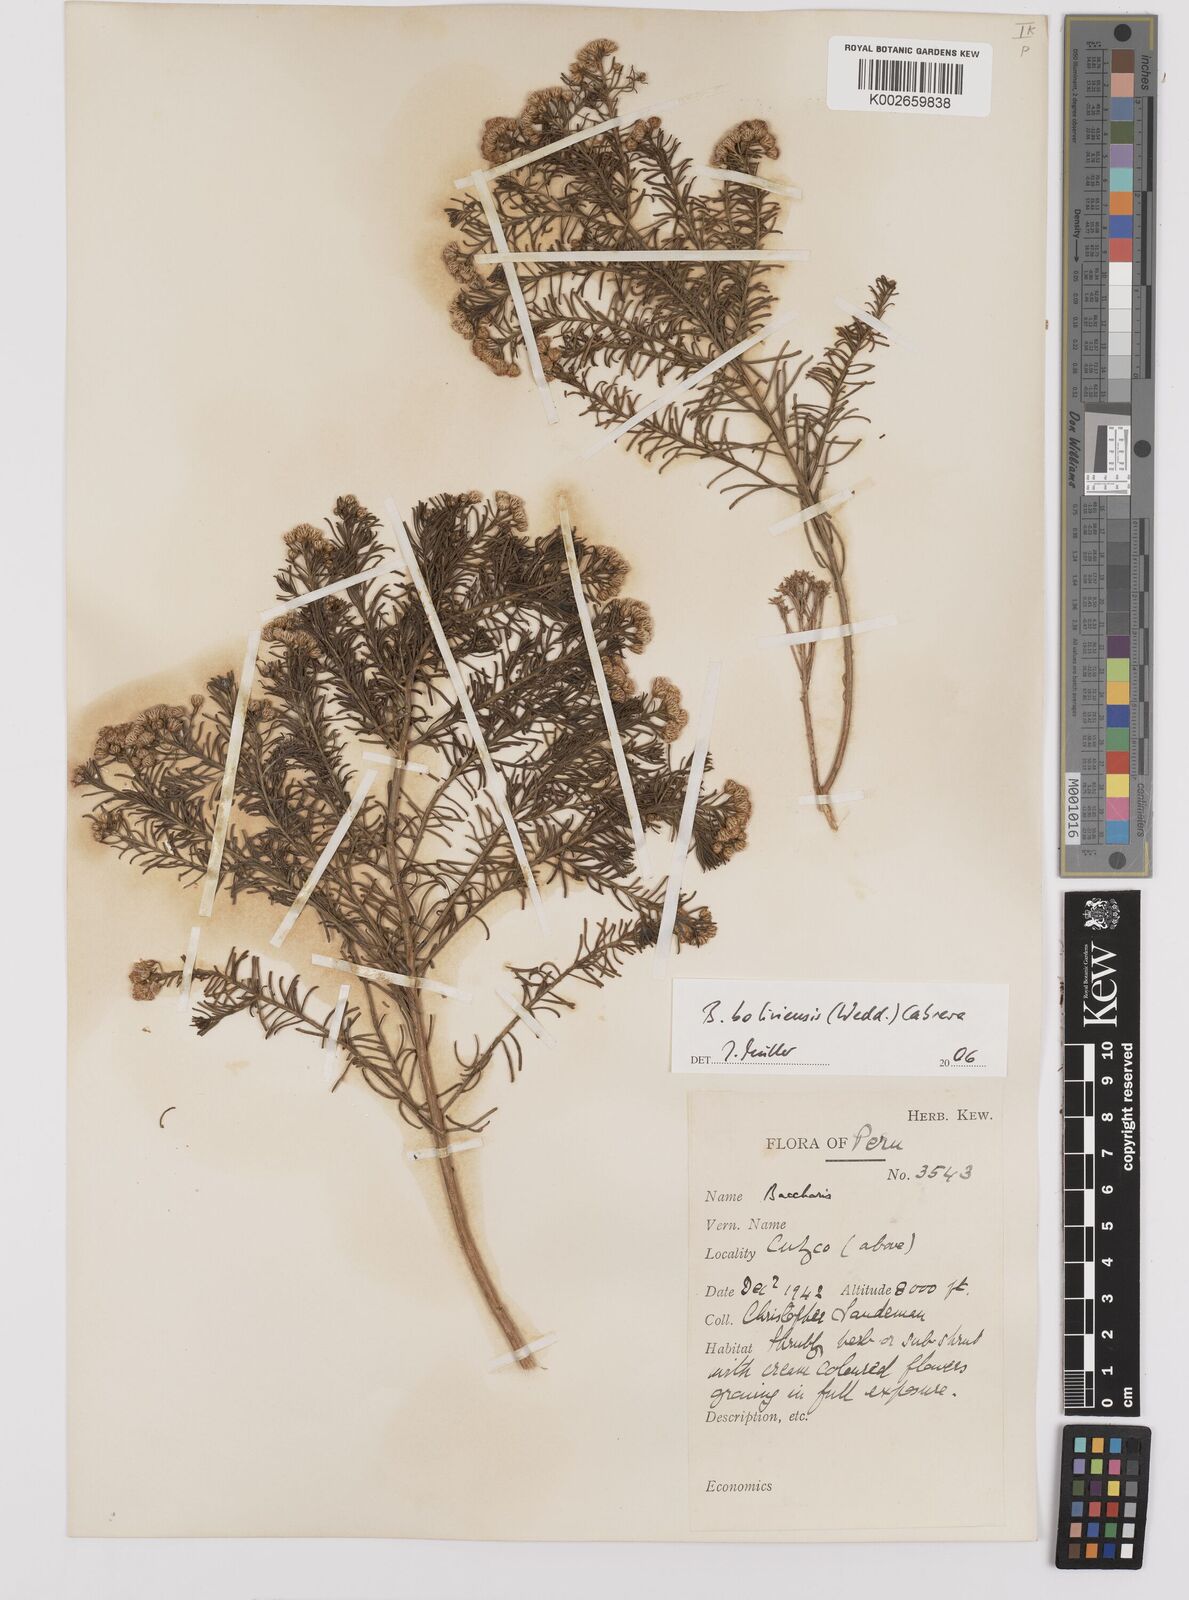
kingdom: Plantae
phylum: Tracheophyta
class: Magnoliopsida
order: Asterales
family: Asteraceae
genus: Baccharis
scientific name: Baccharis bolivensis
